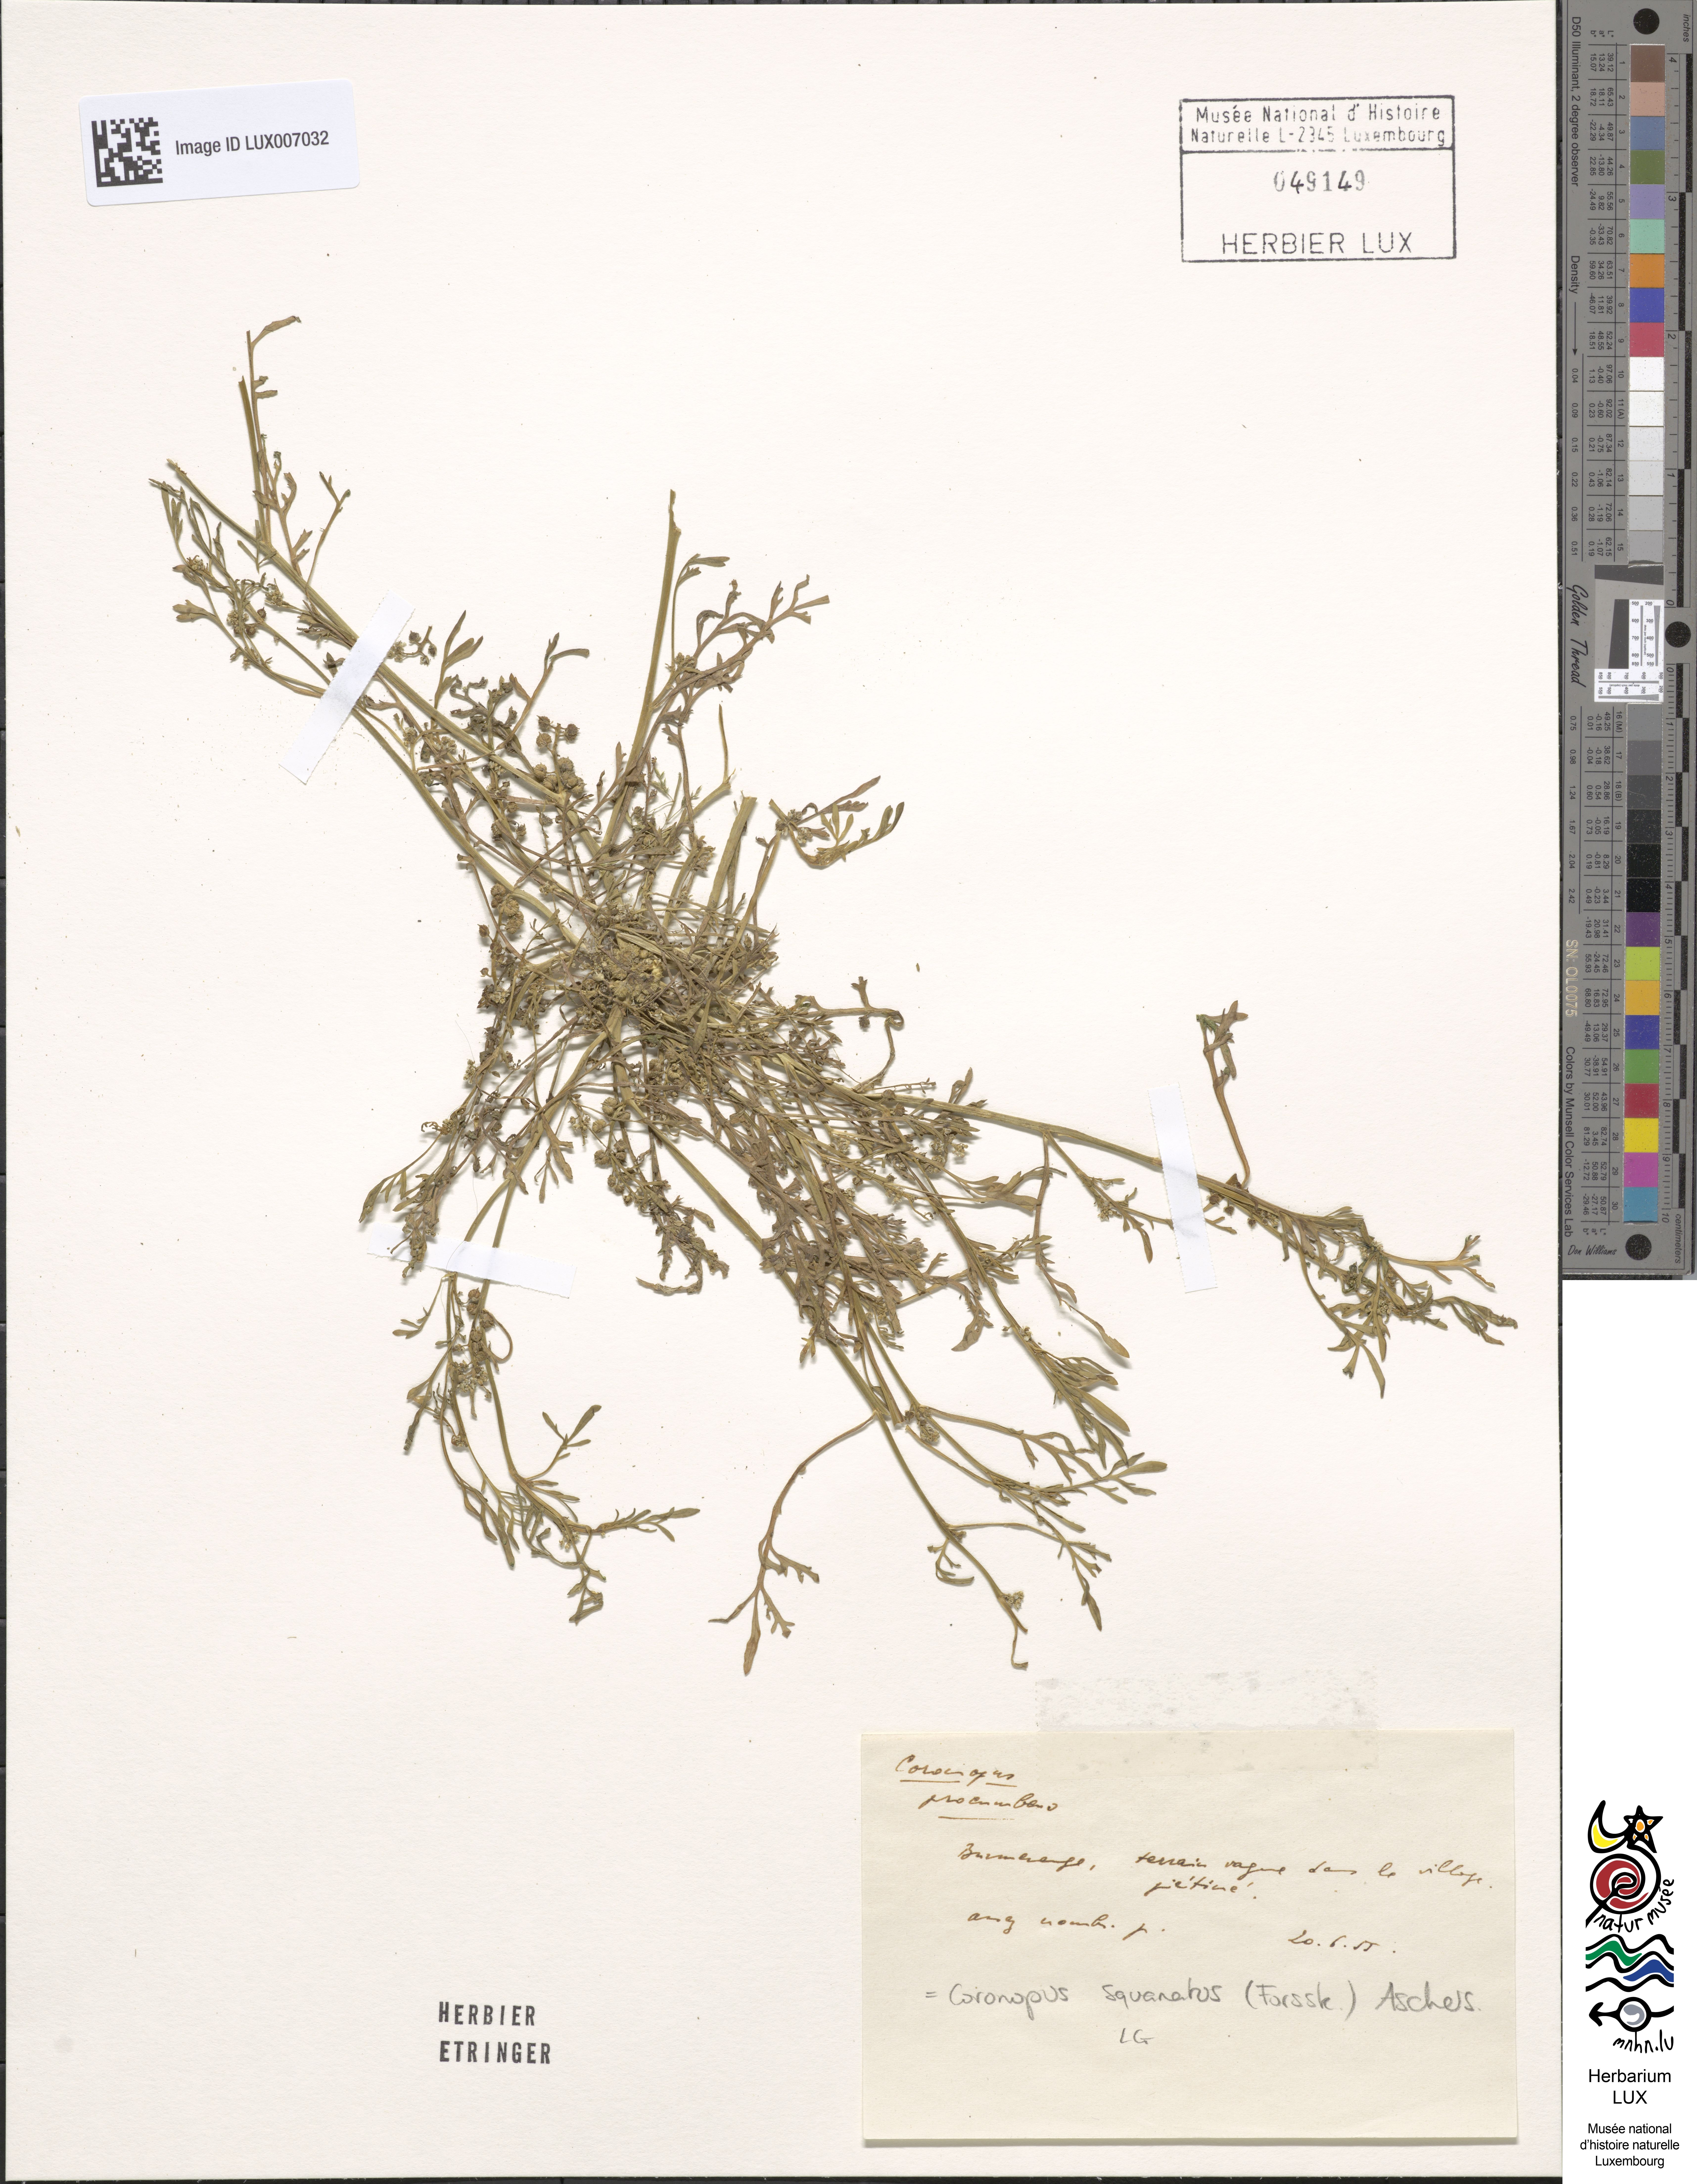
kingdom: Plantae
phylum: Tracheophyta
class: Magnoliopsida
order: Brassicales
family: Brassicaceae
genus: Lepidium
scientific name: Lepidium coronopus
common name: Greater swinecress
